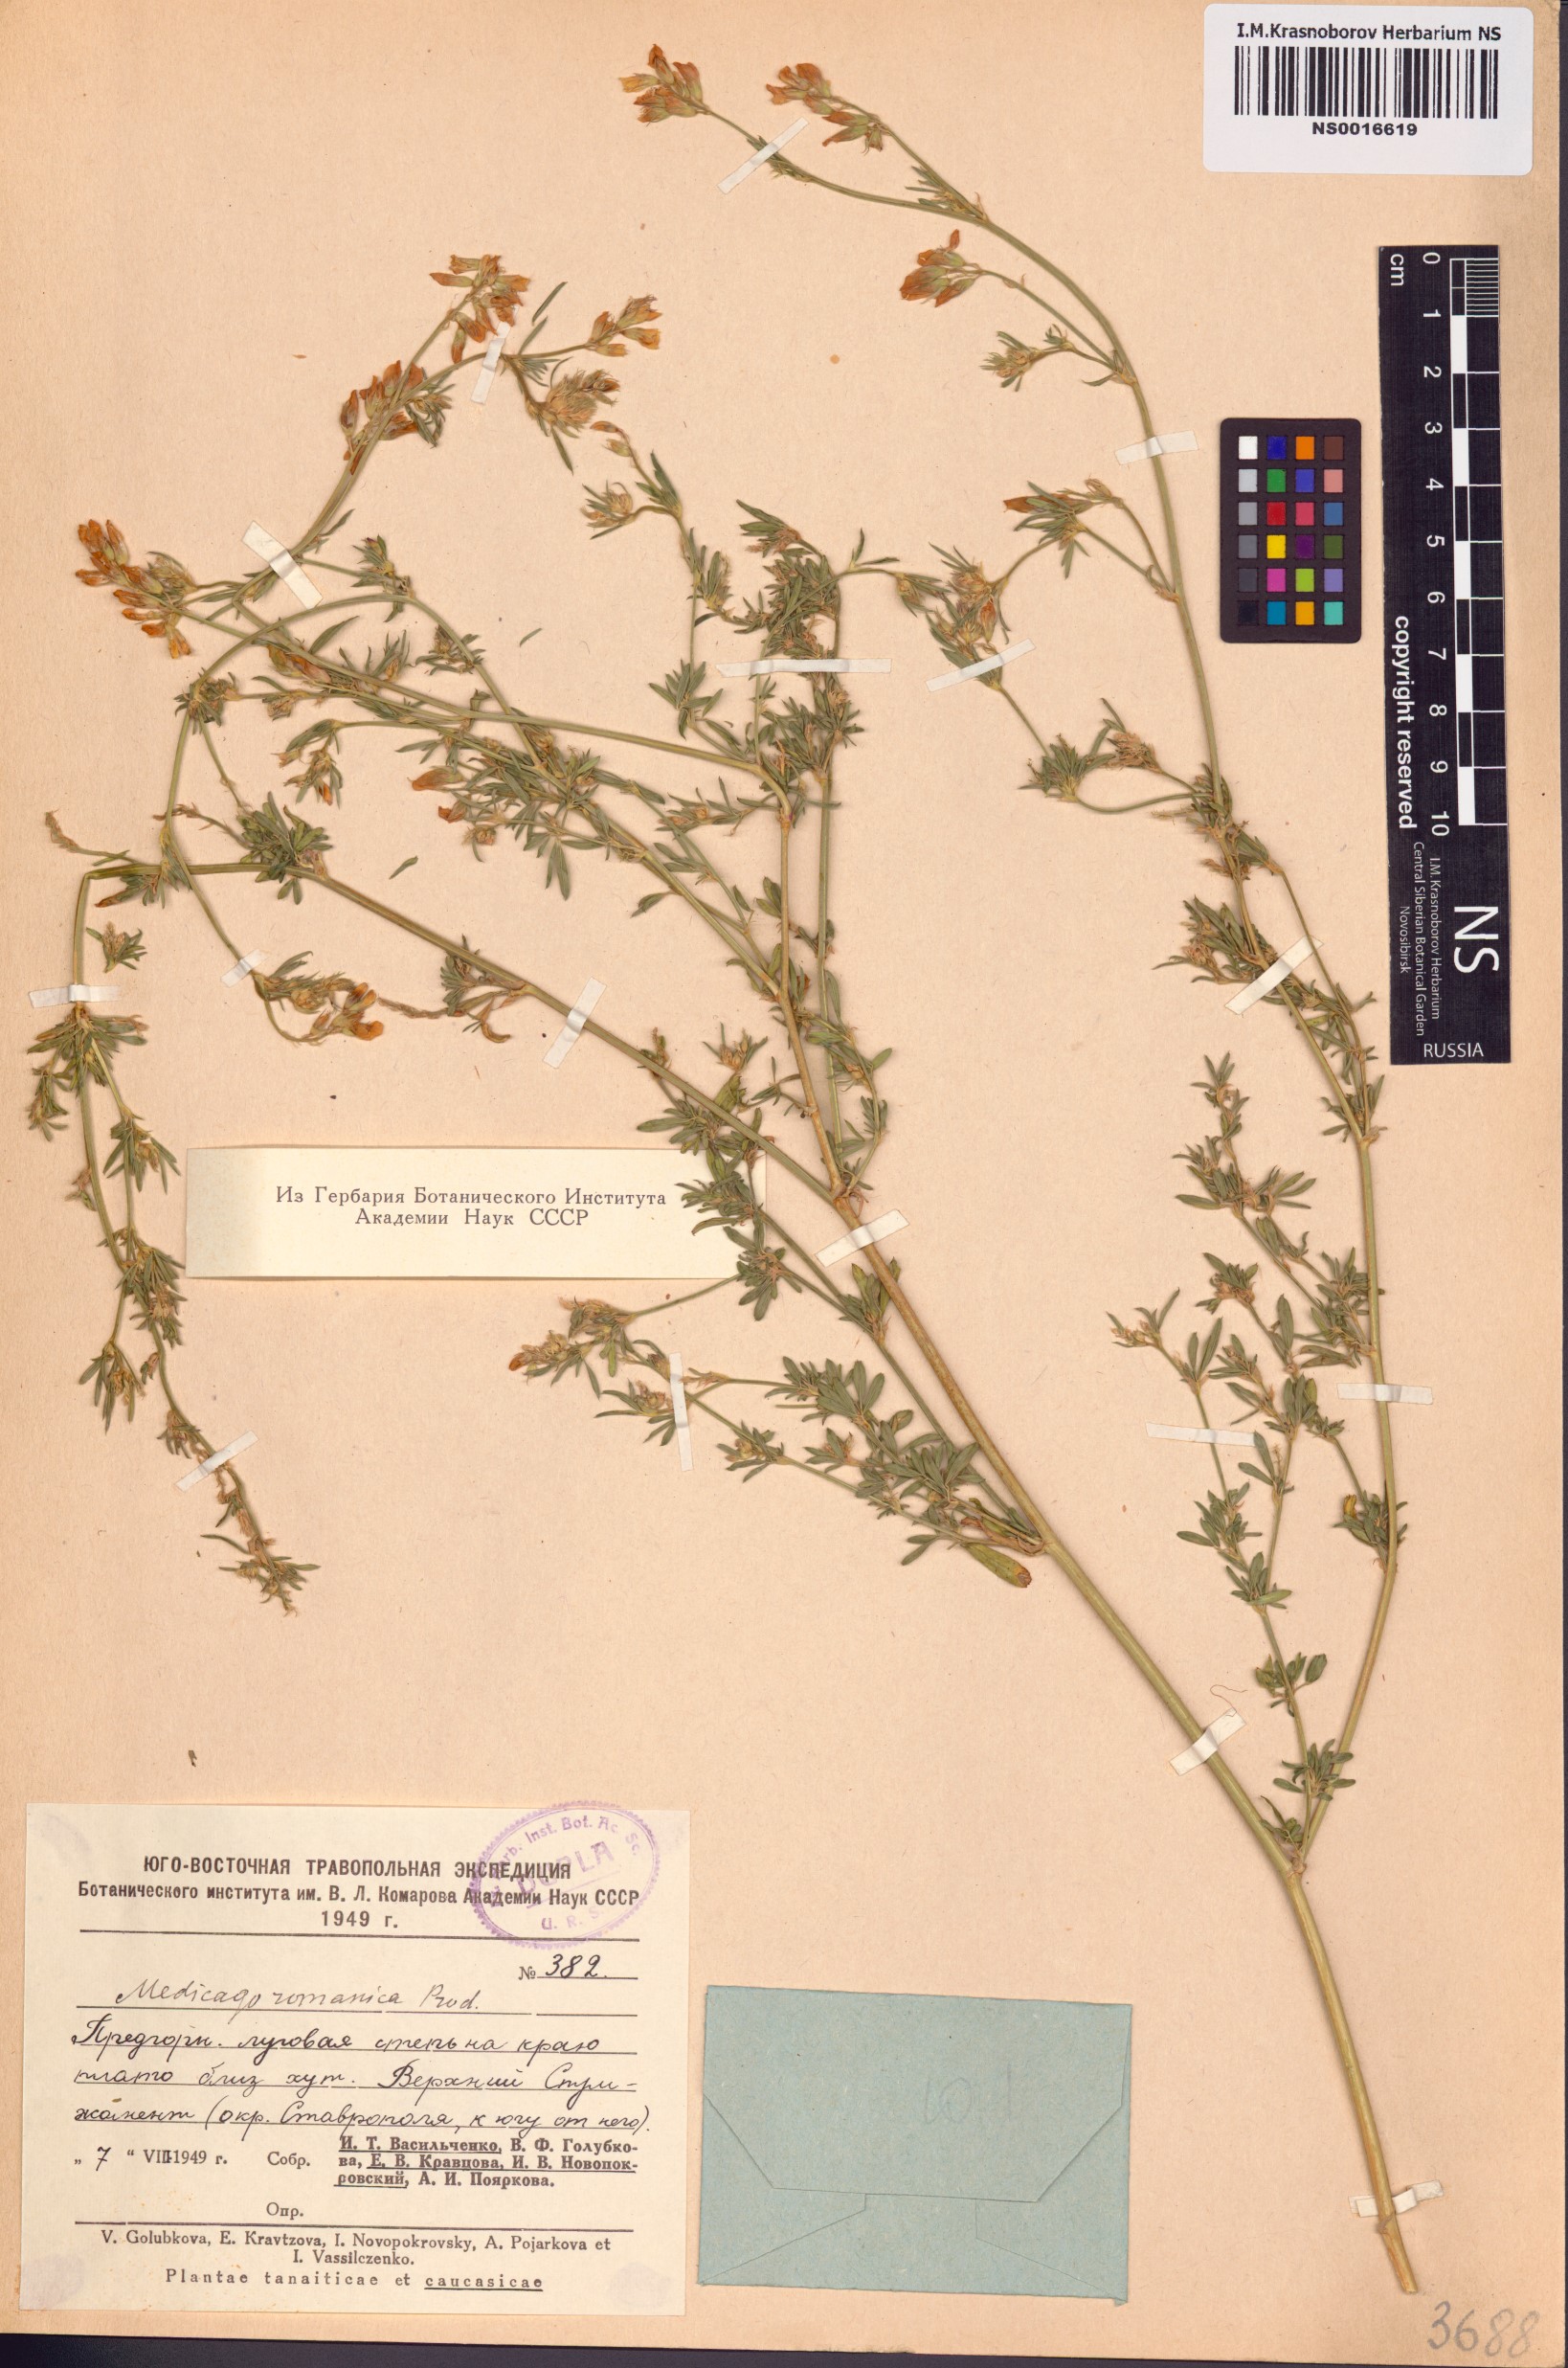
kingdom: Plantae
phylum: Tracheophyta
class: Magnoliopsida
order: Fabales
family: Fabaceae
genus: Medicago
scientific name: Medicago falcata
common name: Sickle medick
